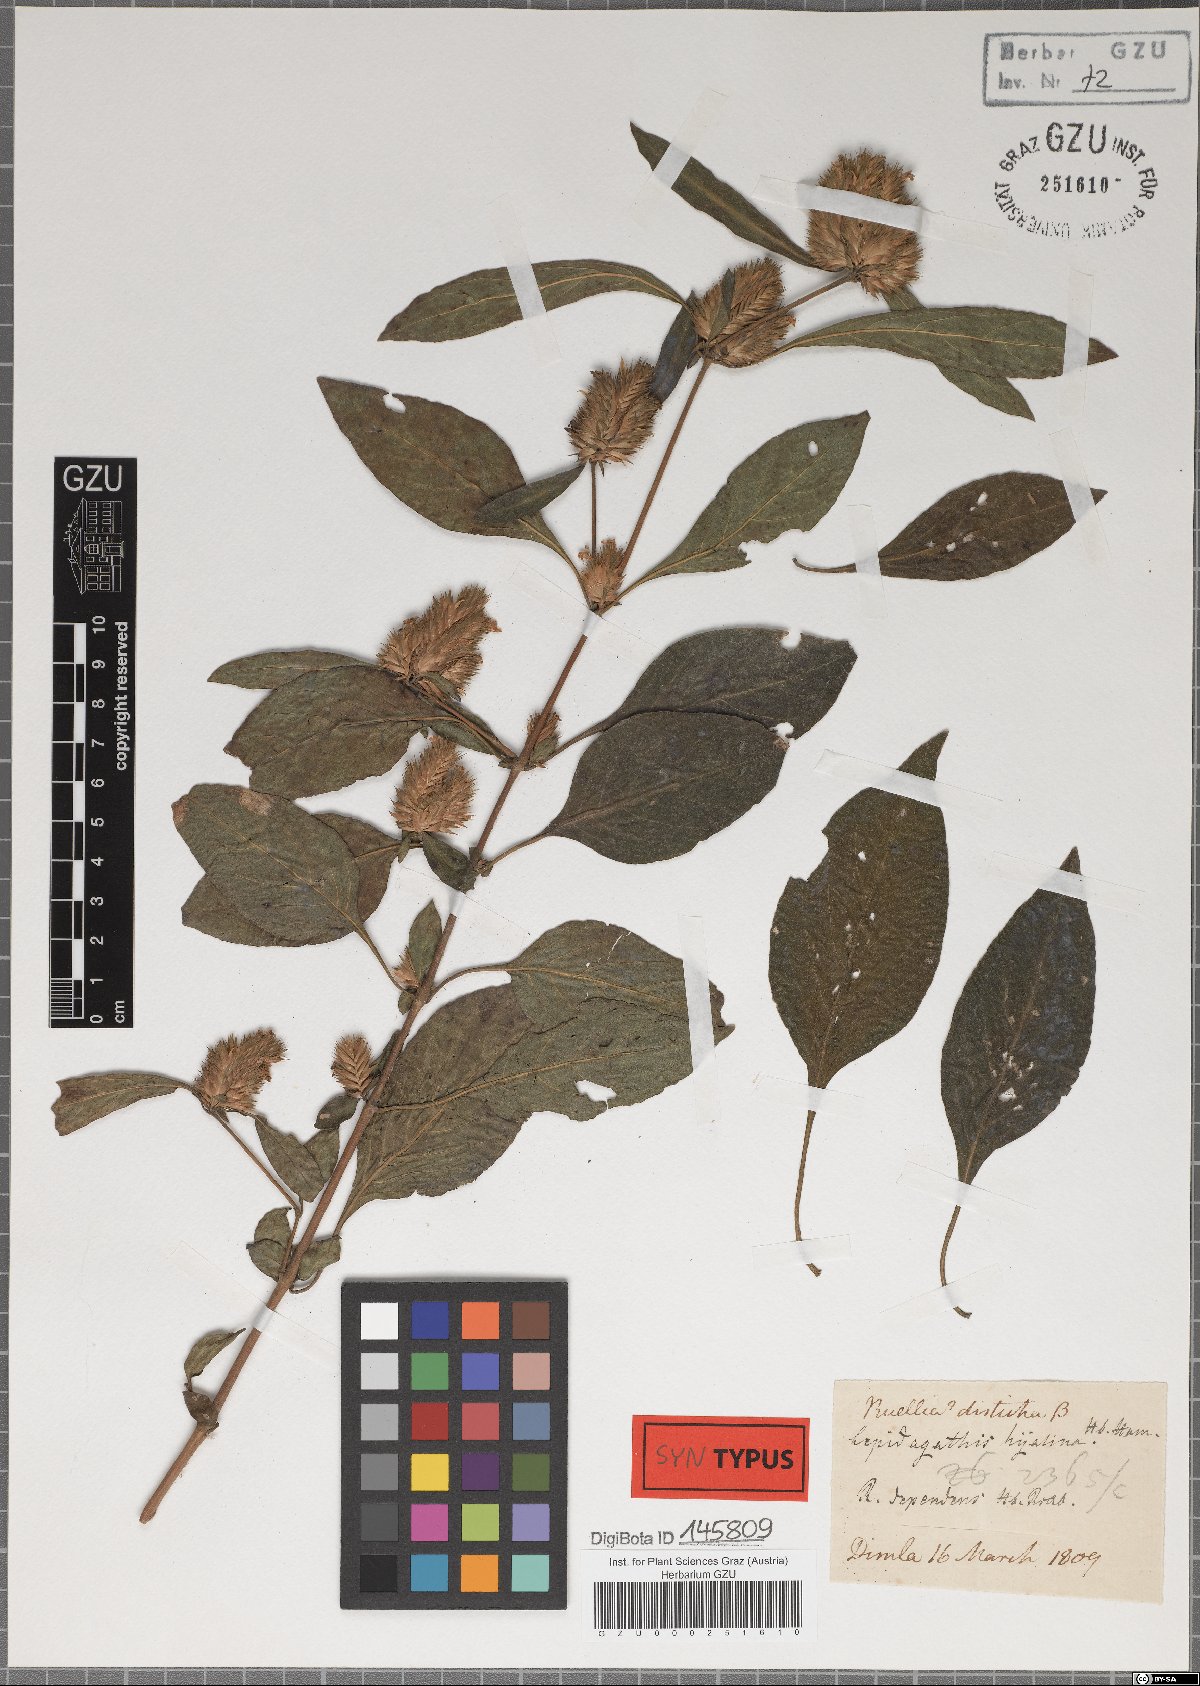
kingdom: Plantae
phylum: Tracheophyta
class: Magnoliopsida
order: Lamiales
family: Acanthaceae
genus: Lepidagathis
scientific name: Lepidagathis incurva
